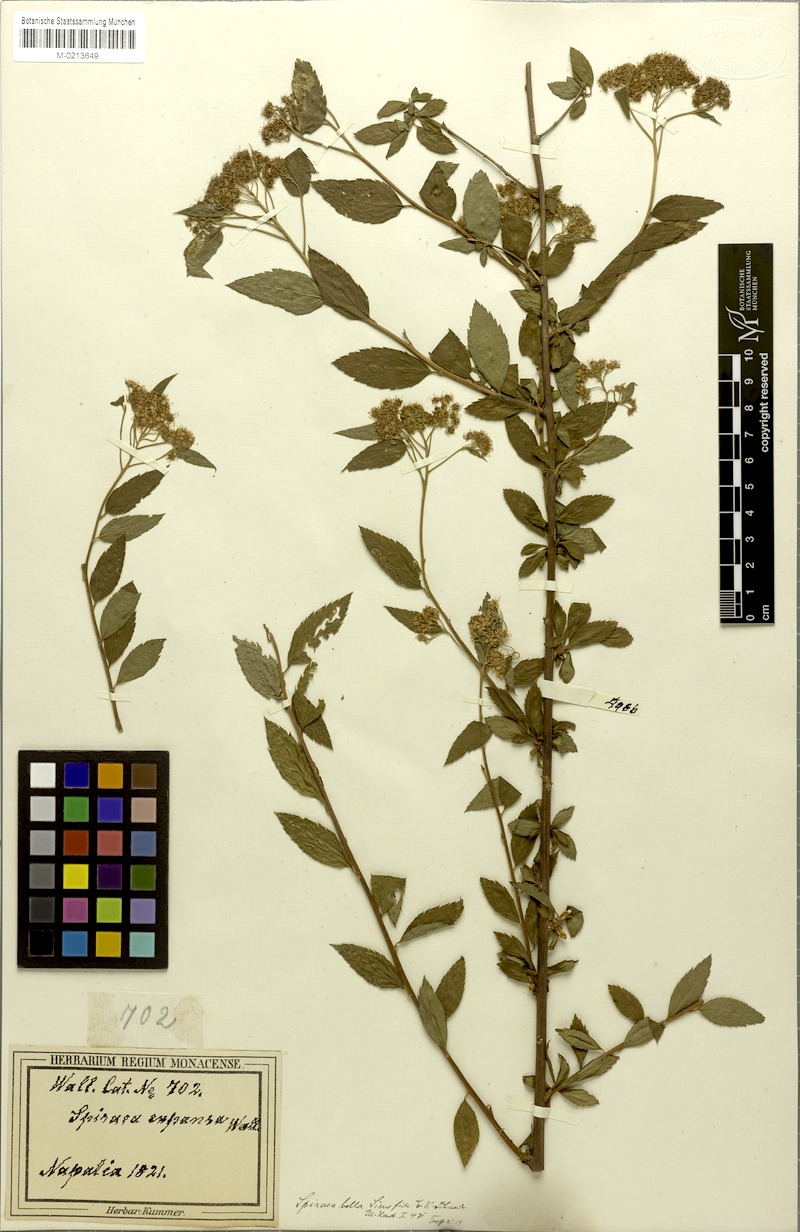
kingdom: Plantae
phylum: Tracheophyta
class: Magnoliopsida
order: Rosales
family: Rosaceae
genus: Spiraea
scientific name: Spiraea bella
